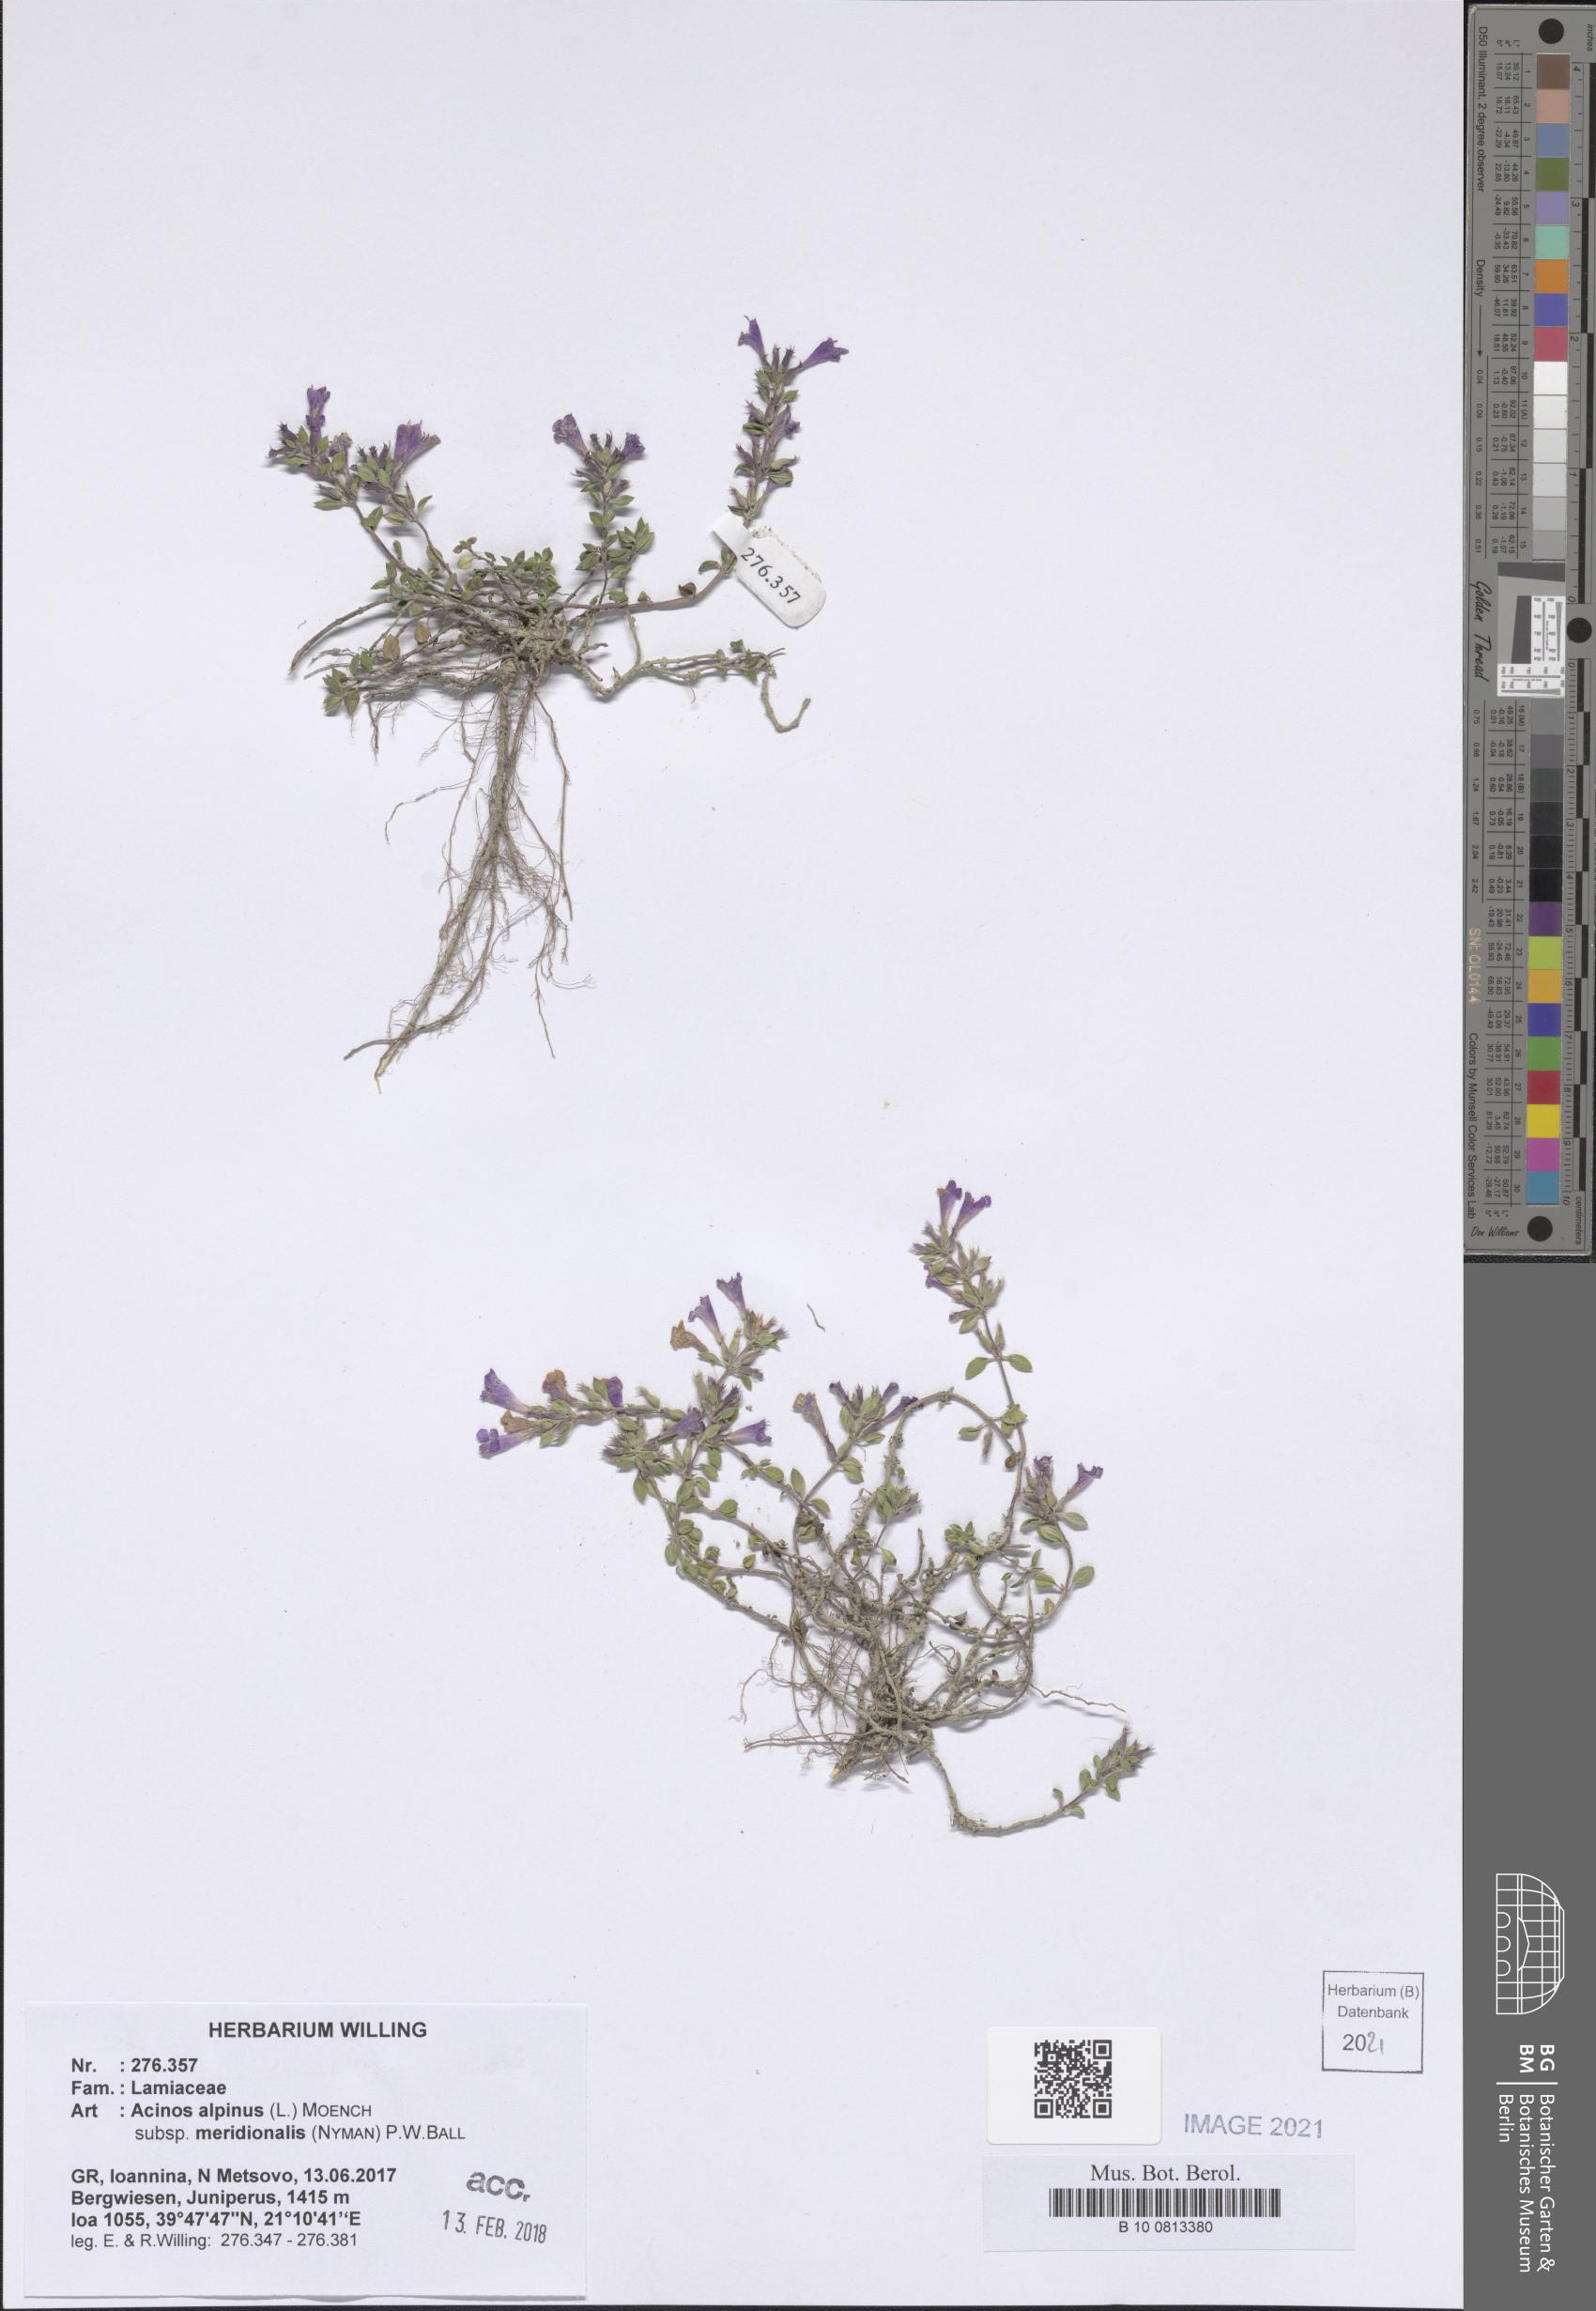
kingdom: Plantae
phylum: Tracheophyta
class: Magnoliopsida
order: Lamiales
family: Lamiaceae
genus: Clinopodium
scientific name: Clinopodium alpinum
